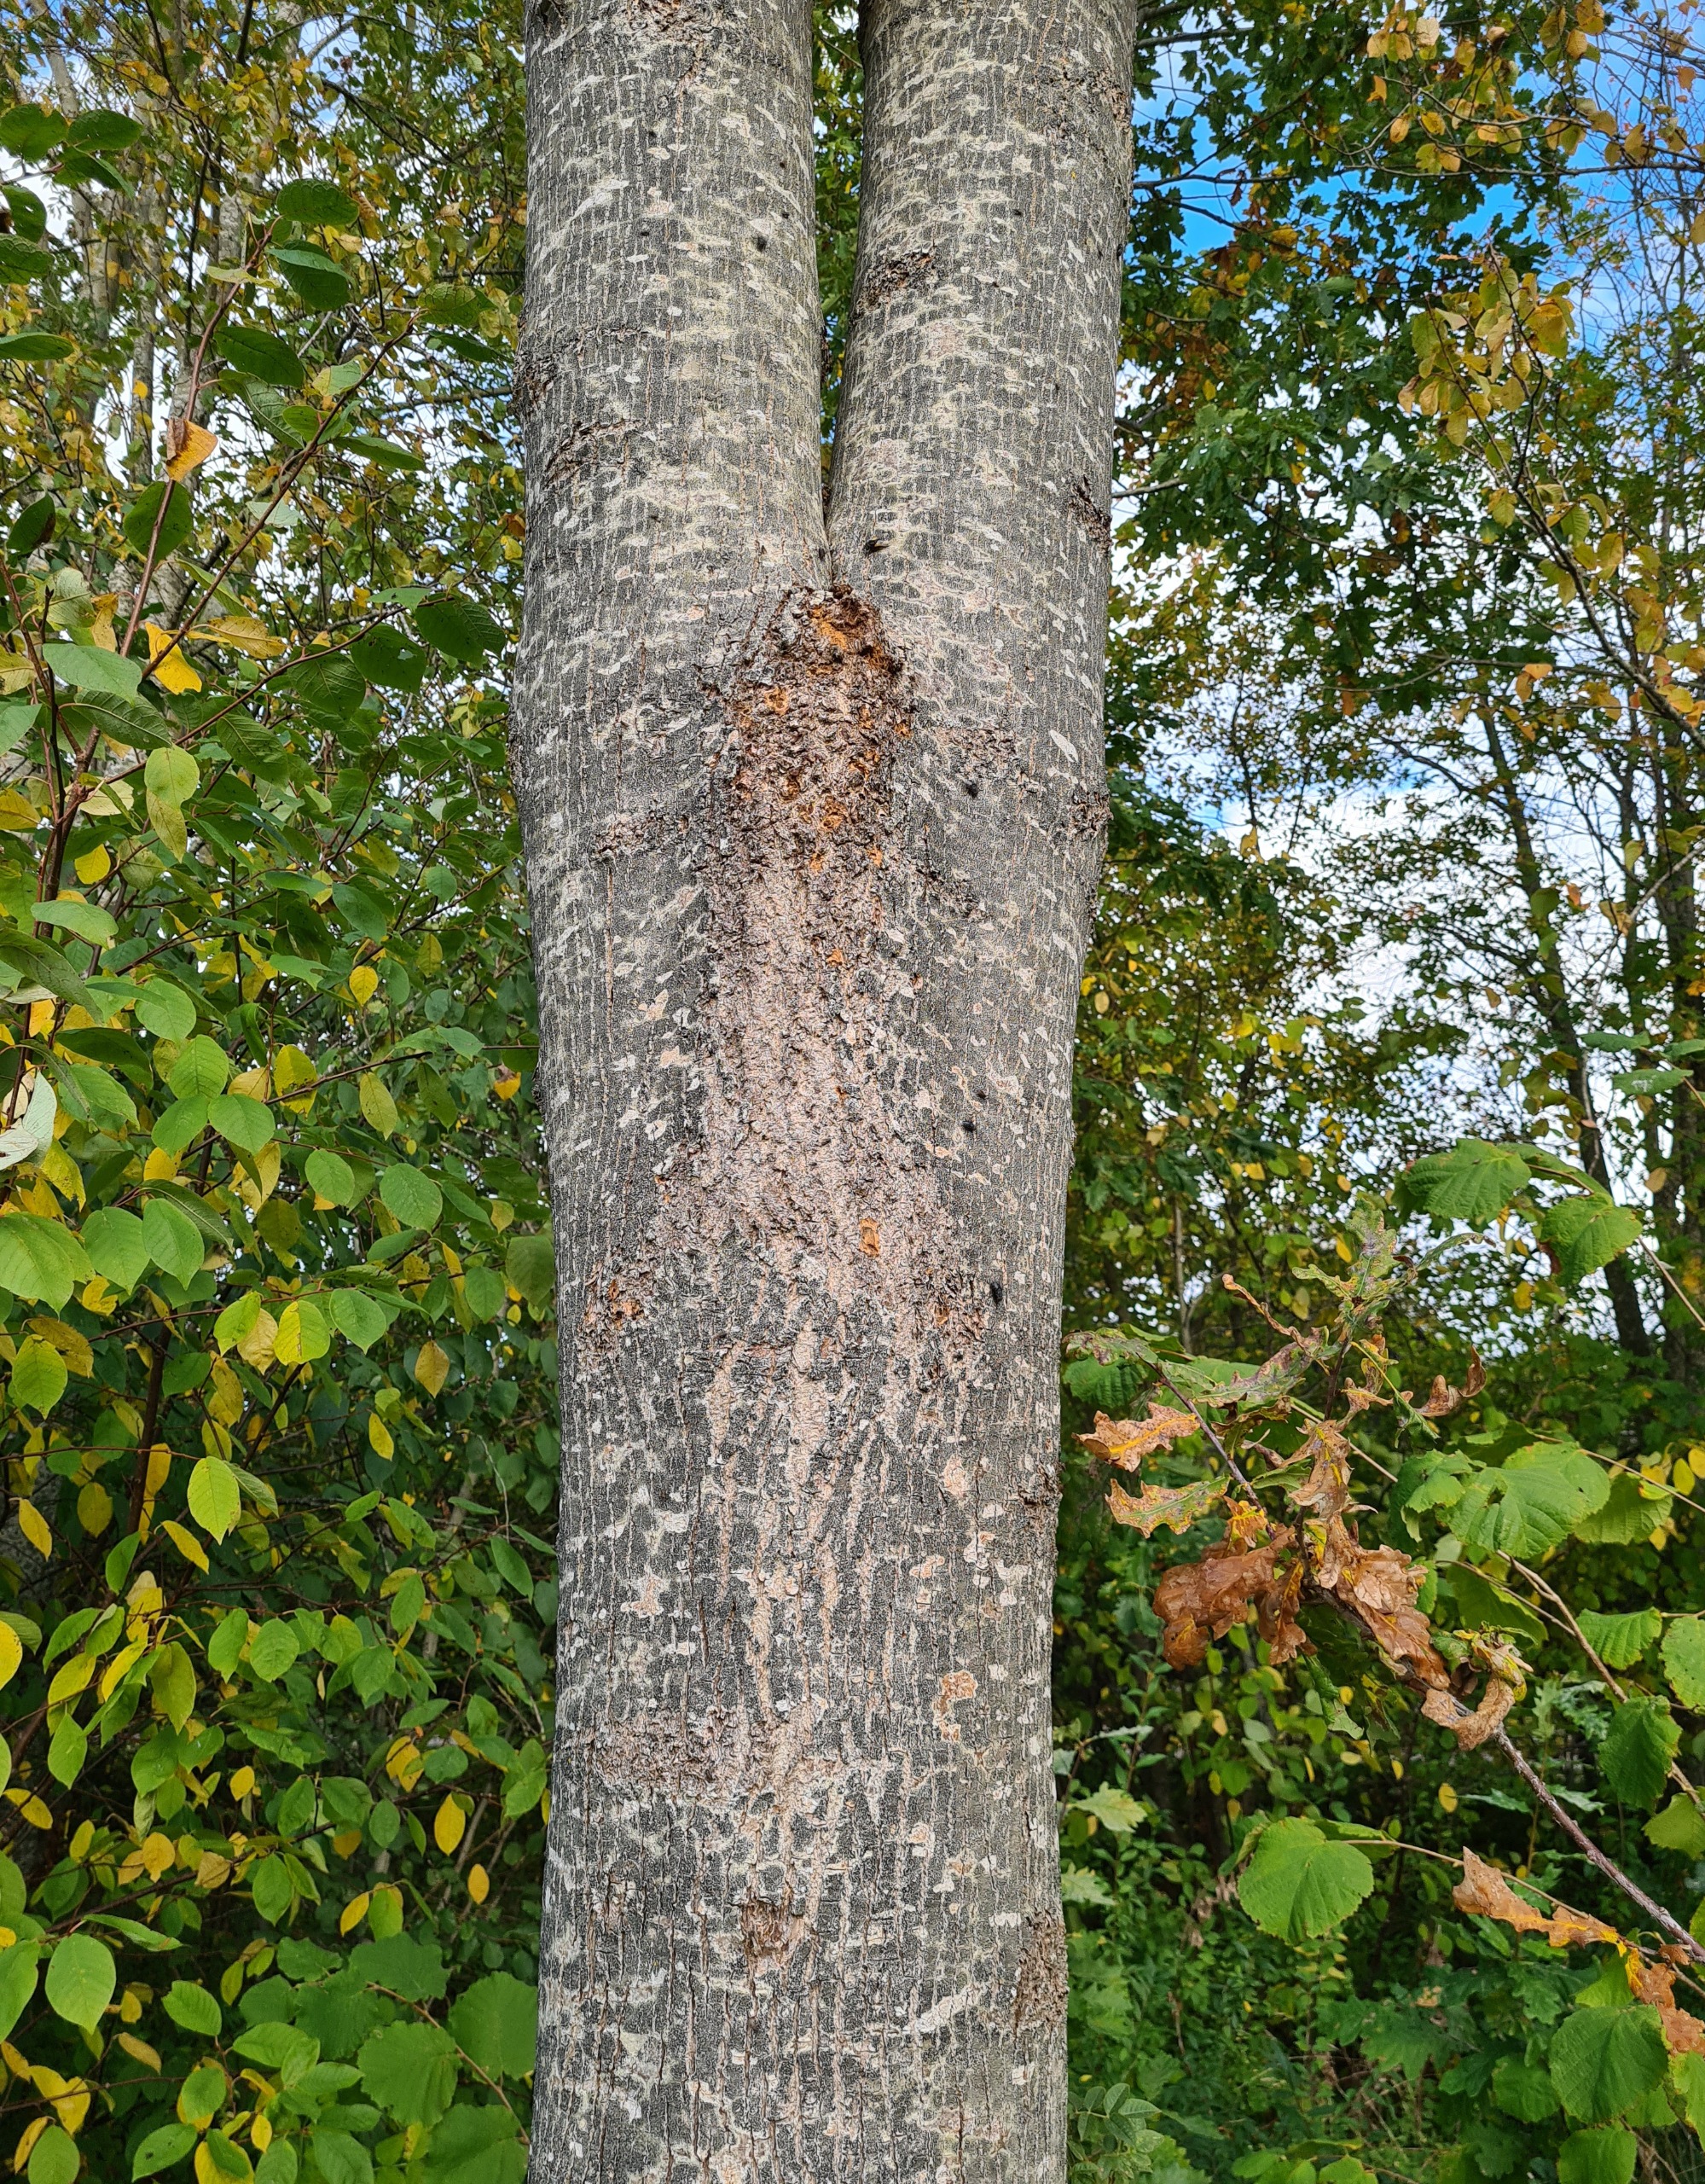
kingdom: Animalia
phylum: Arthropoda
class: Insecta
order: Diptera
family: Muscidae
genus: Mesembrina
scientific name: Mesembrina meridiana
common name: Gulvinget flue
